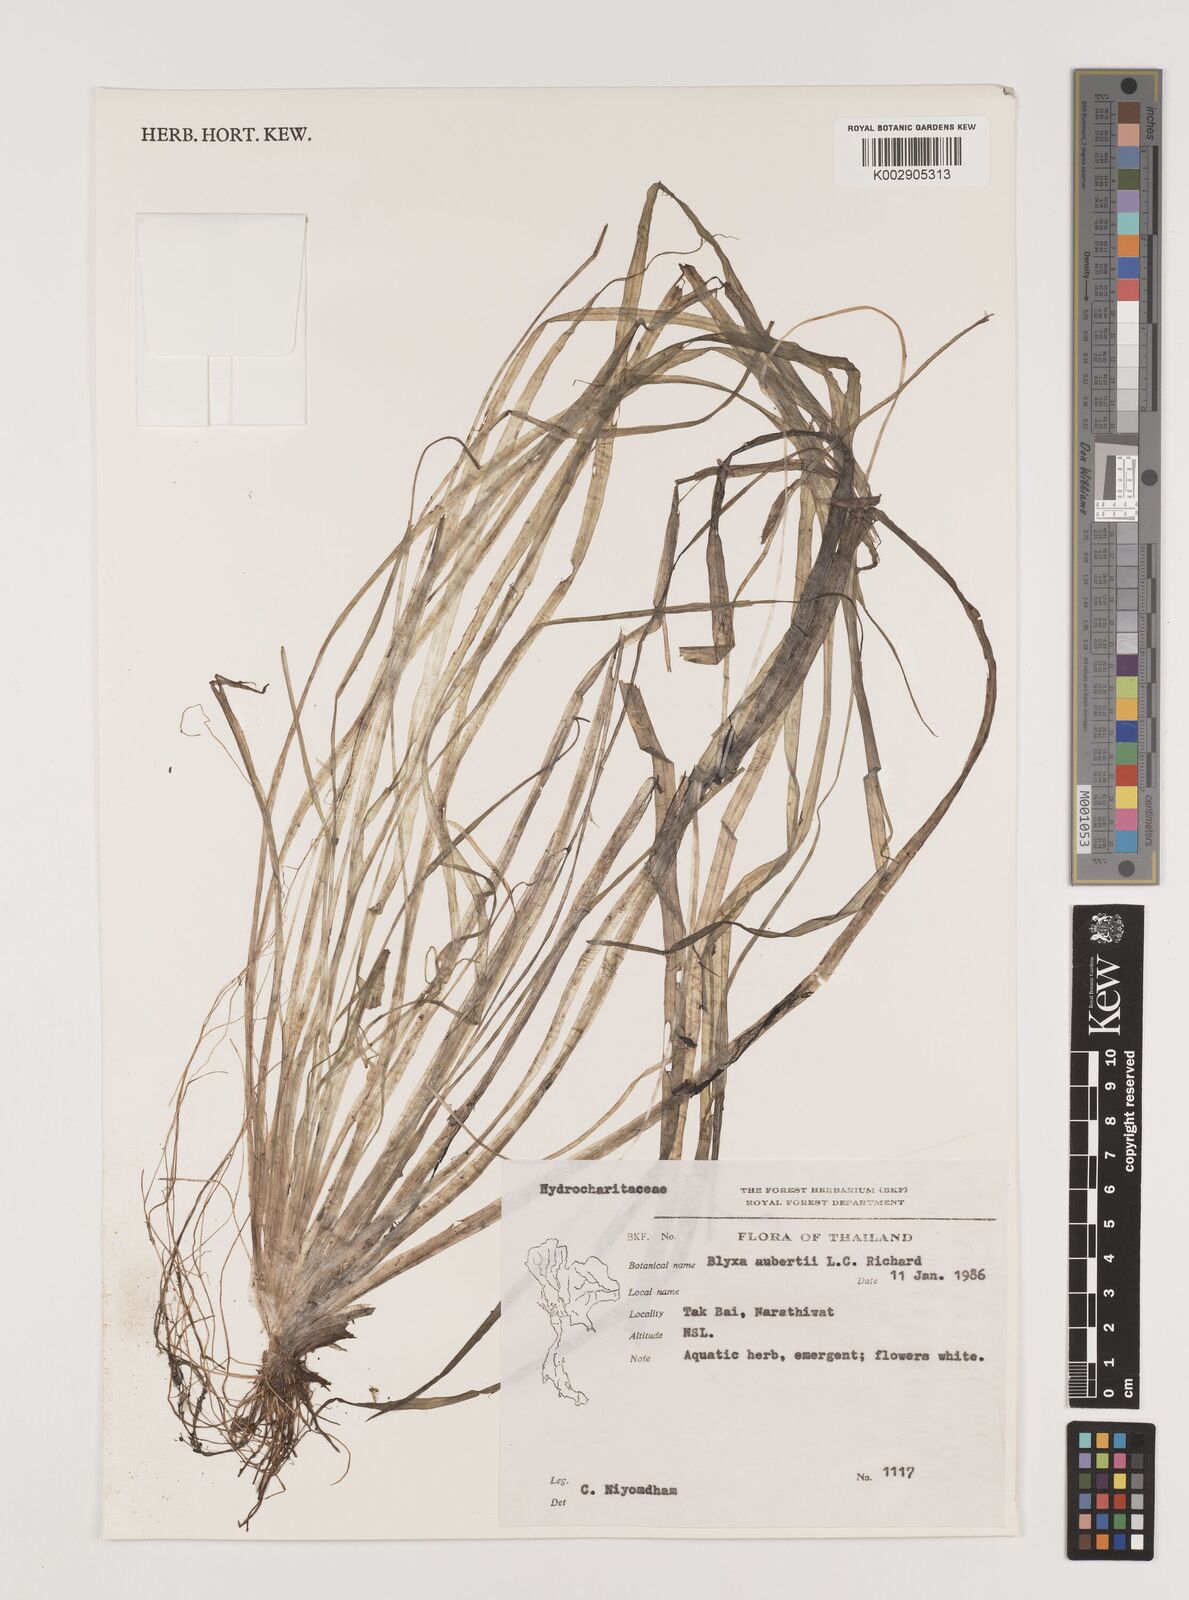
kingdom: Plantae
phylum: Tracheophyta
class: Liliopsida
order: Alismatales
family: Hydrocharitaceae
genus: Blyxa
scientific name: Blyxa aubertii
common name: Roundfruit blyxa
